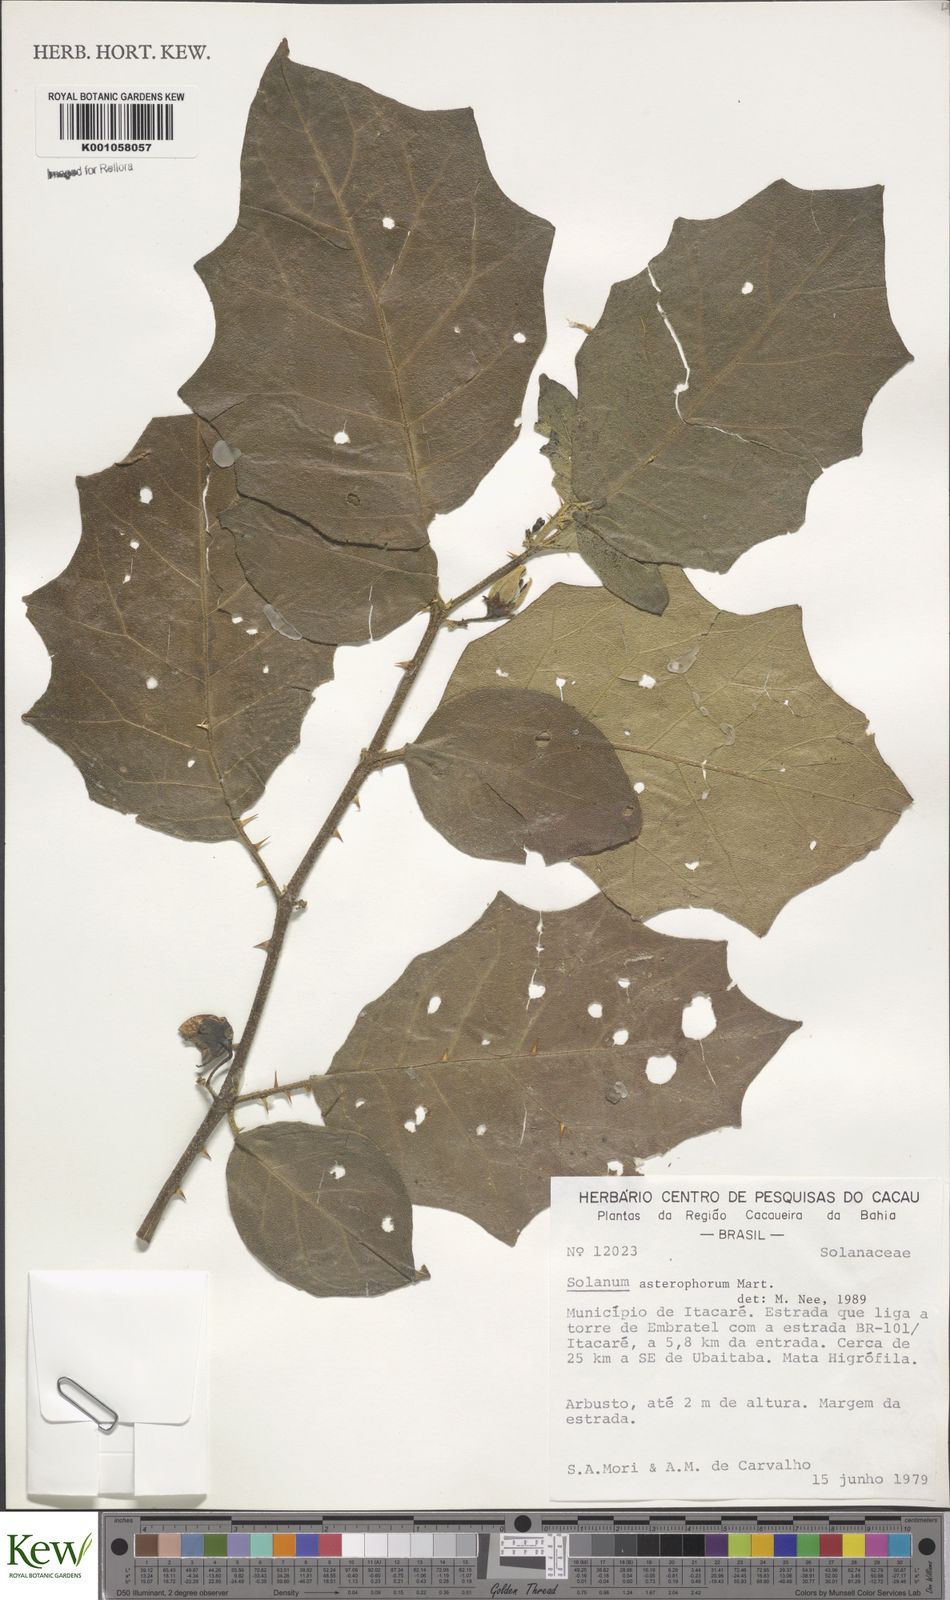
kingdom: Plantae
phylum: Tracheophyta
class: Magnoliopsida
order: Solanales
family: Solanaceae
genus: Solanum
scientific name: Solanum asterophorum
